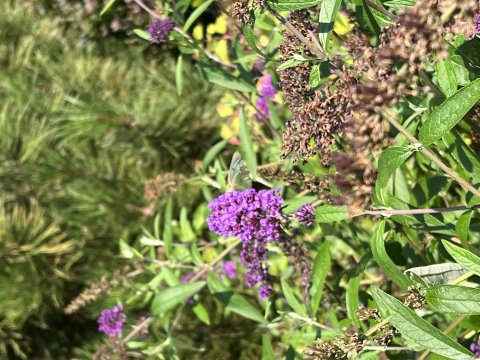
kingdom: Animalia
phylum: Arthropoda
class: Insecta
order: Lepidoptera
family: Pieridae
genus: Colias
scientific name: Colias philodice
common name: Clouded Sulphur
